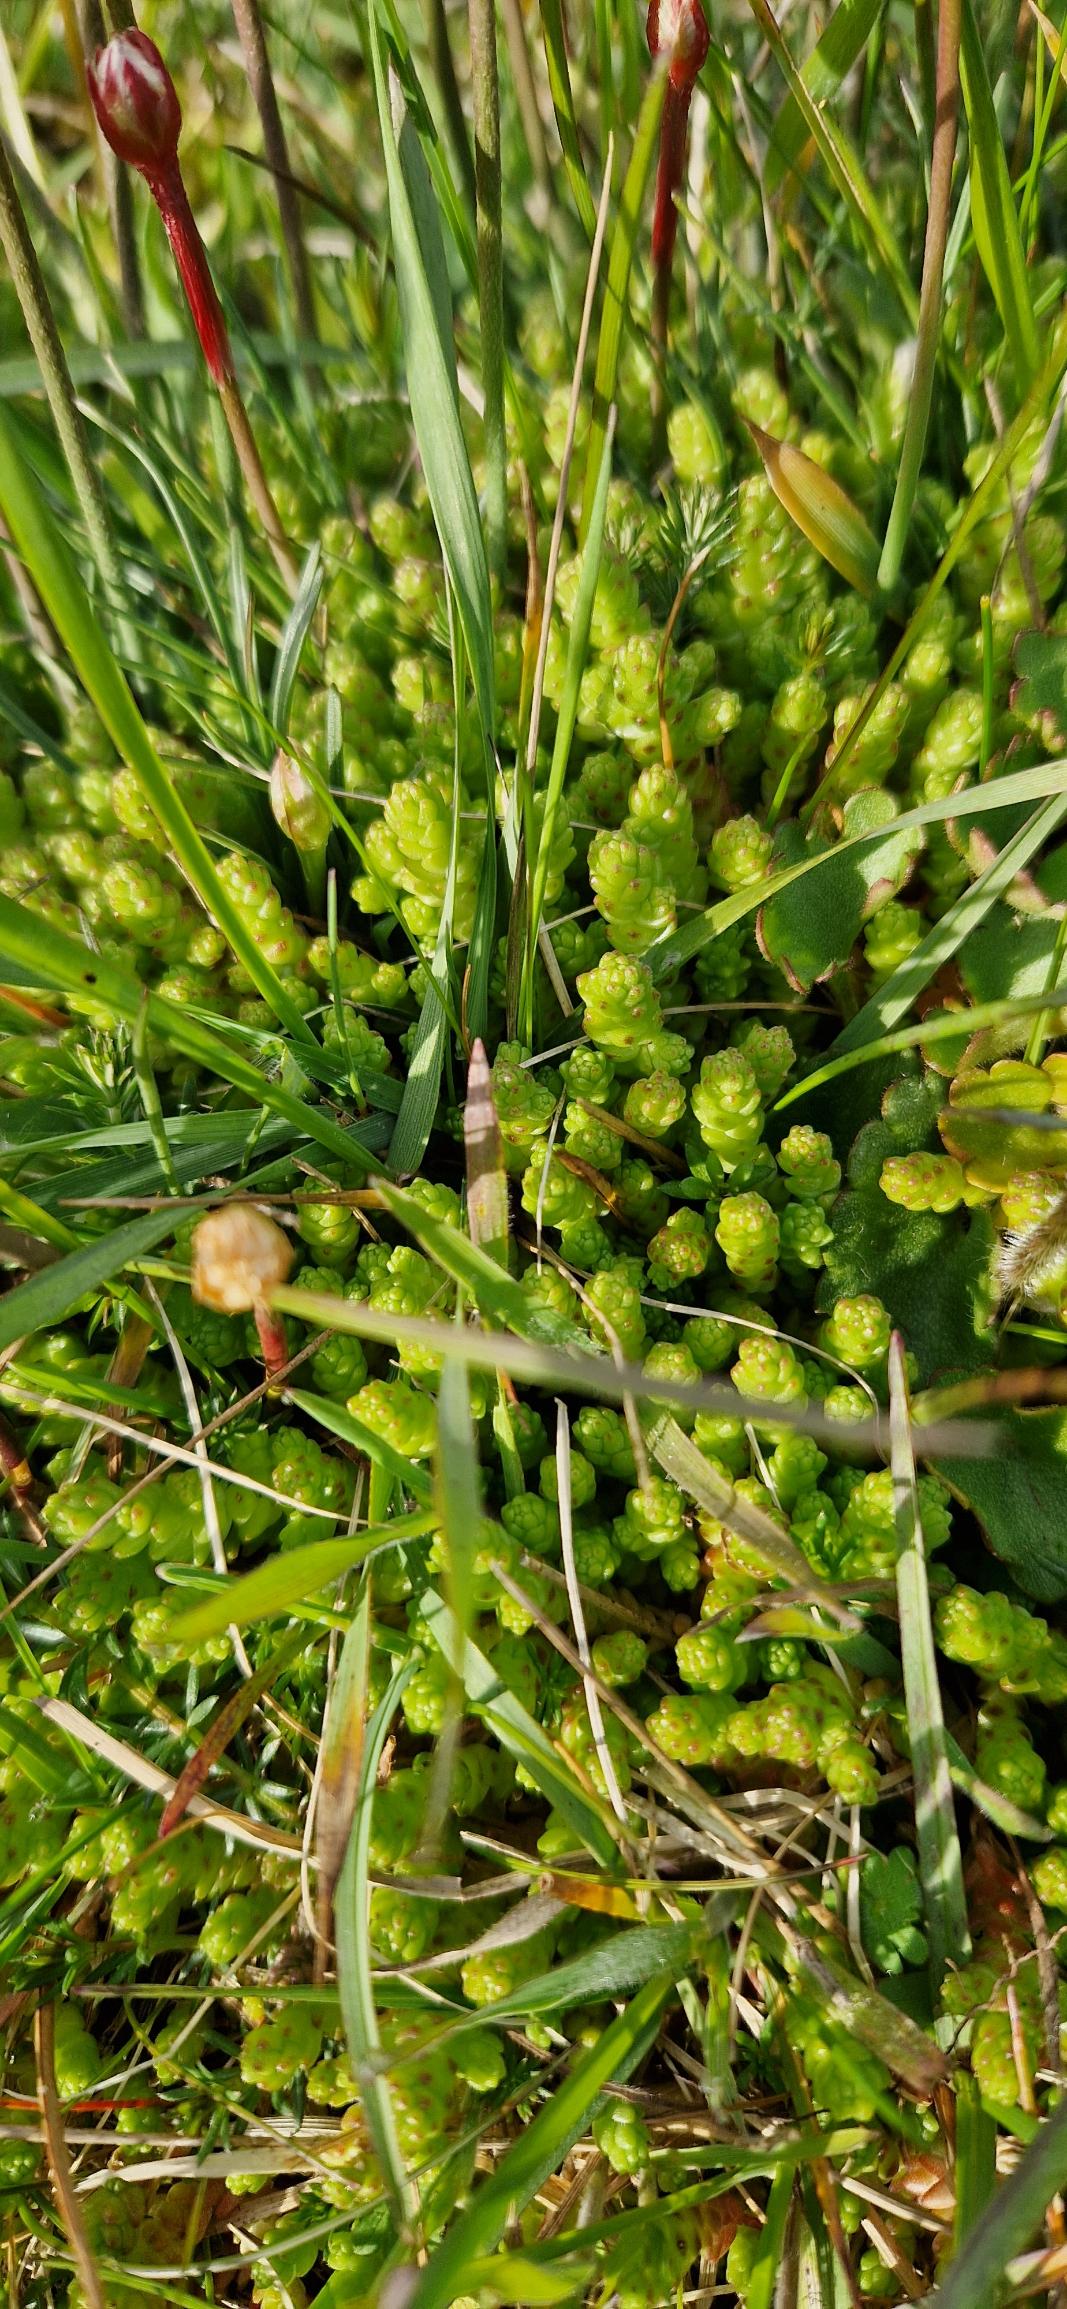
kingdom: Plantae
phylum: Tracheophyta
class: Magnoliopsida
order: Saxifragales
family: Crassulaceae
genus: Sedum
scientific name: Sedum acre
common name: Bidende stenurt
